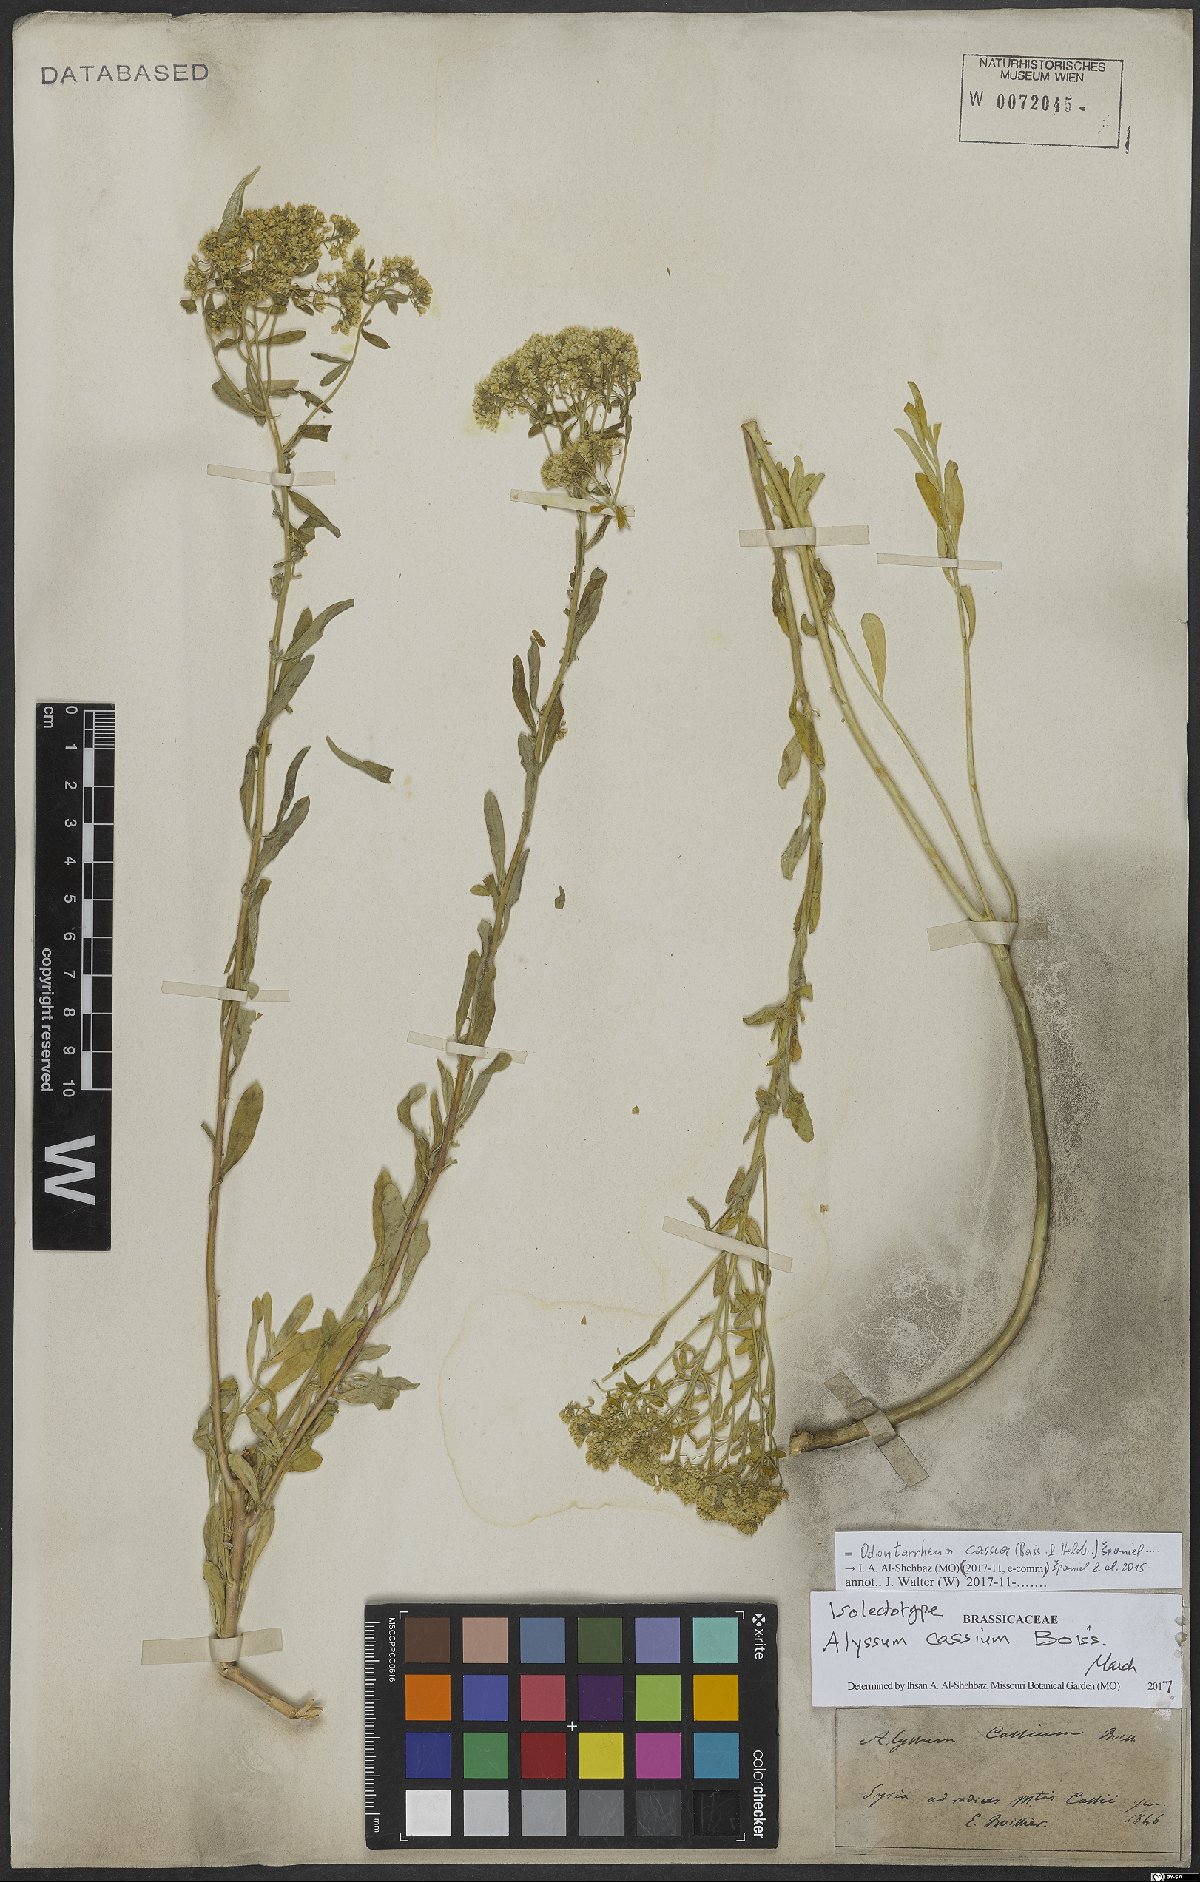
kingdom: Plantae
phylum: Tracheophyta
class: Magnoliopsida
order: Brassicales
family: Brassicaceae
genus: Odontarrhena
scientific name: Odontarrhena cassia
